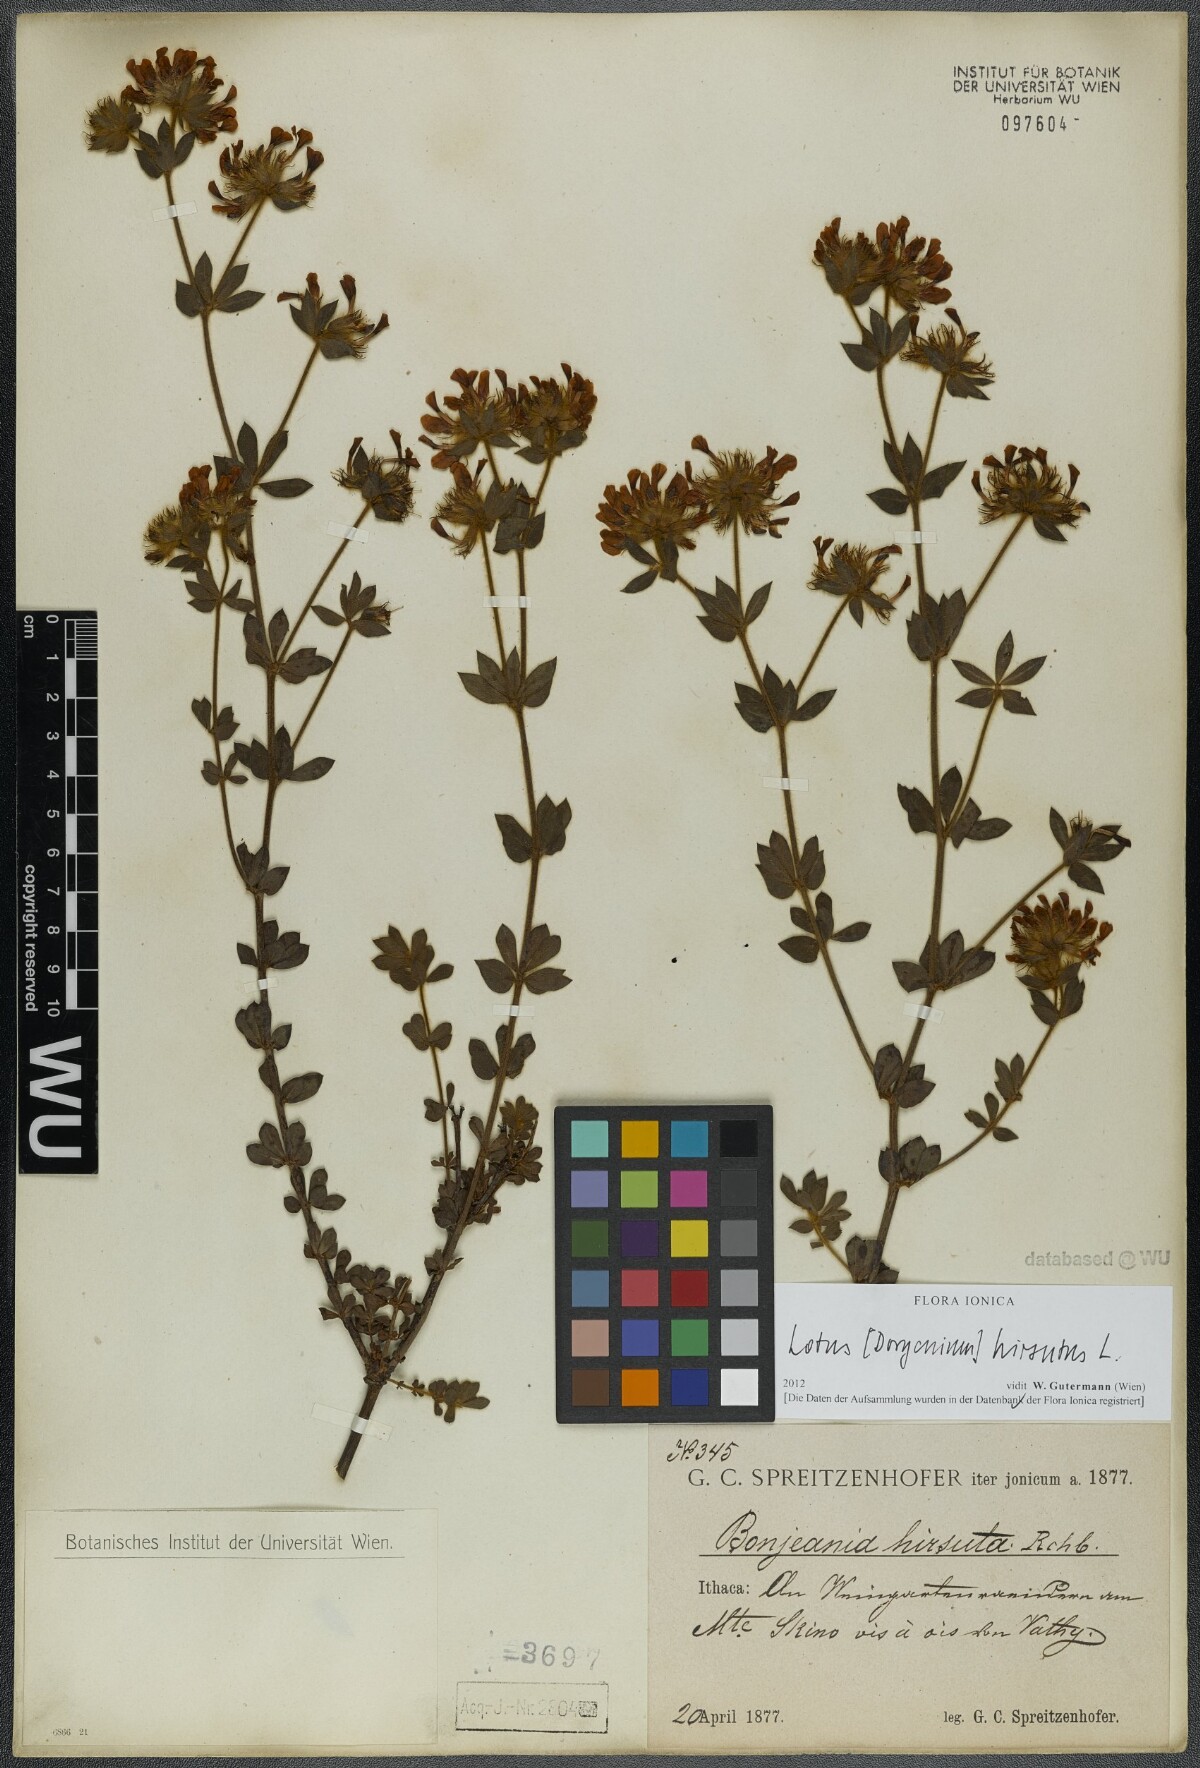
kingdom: Plantae
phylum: Tracheophyta
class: Magnoliopsida
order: Fabales
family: Fabaceae
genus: Lotus
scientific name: Lotus hirsutus
